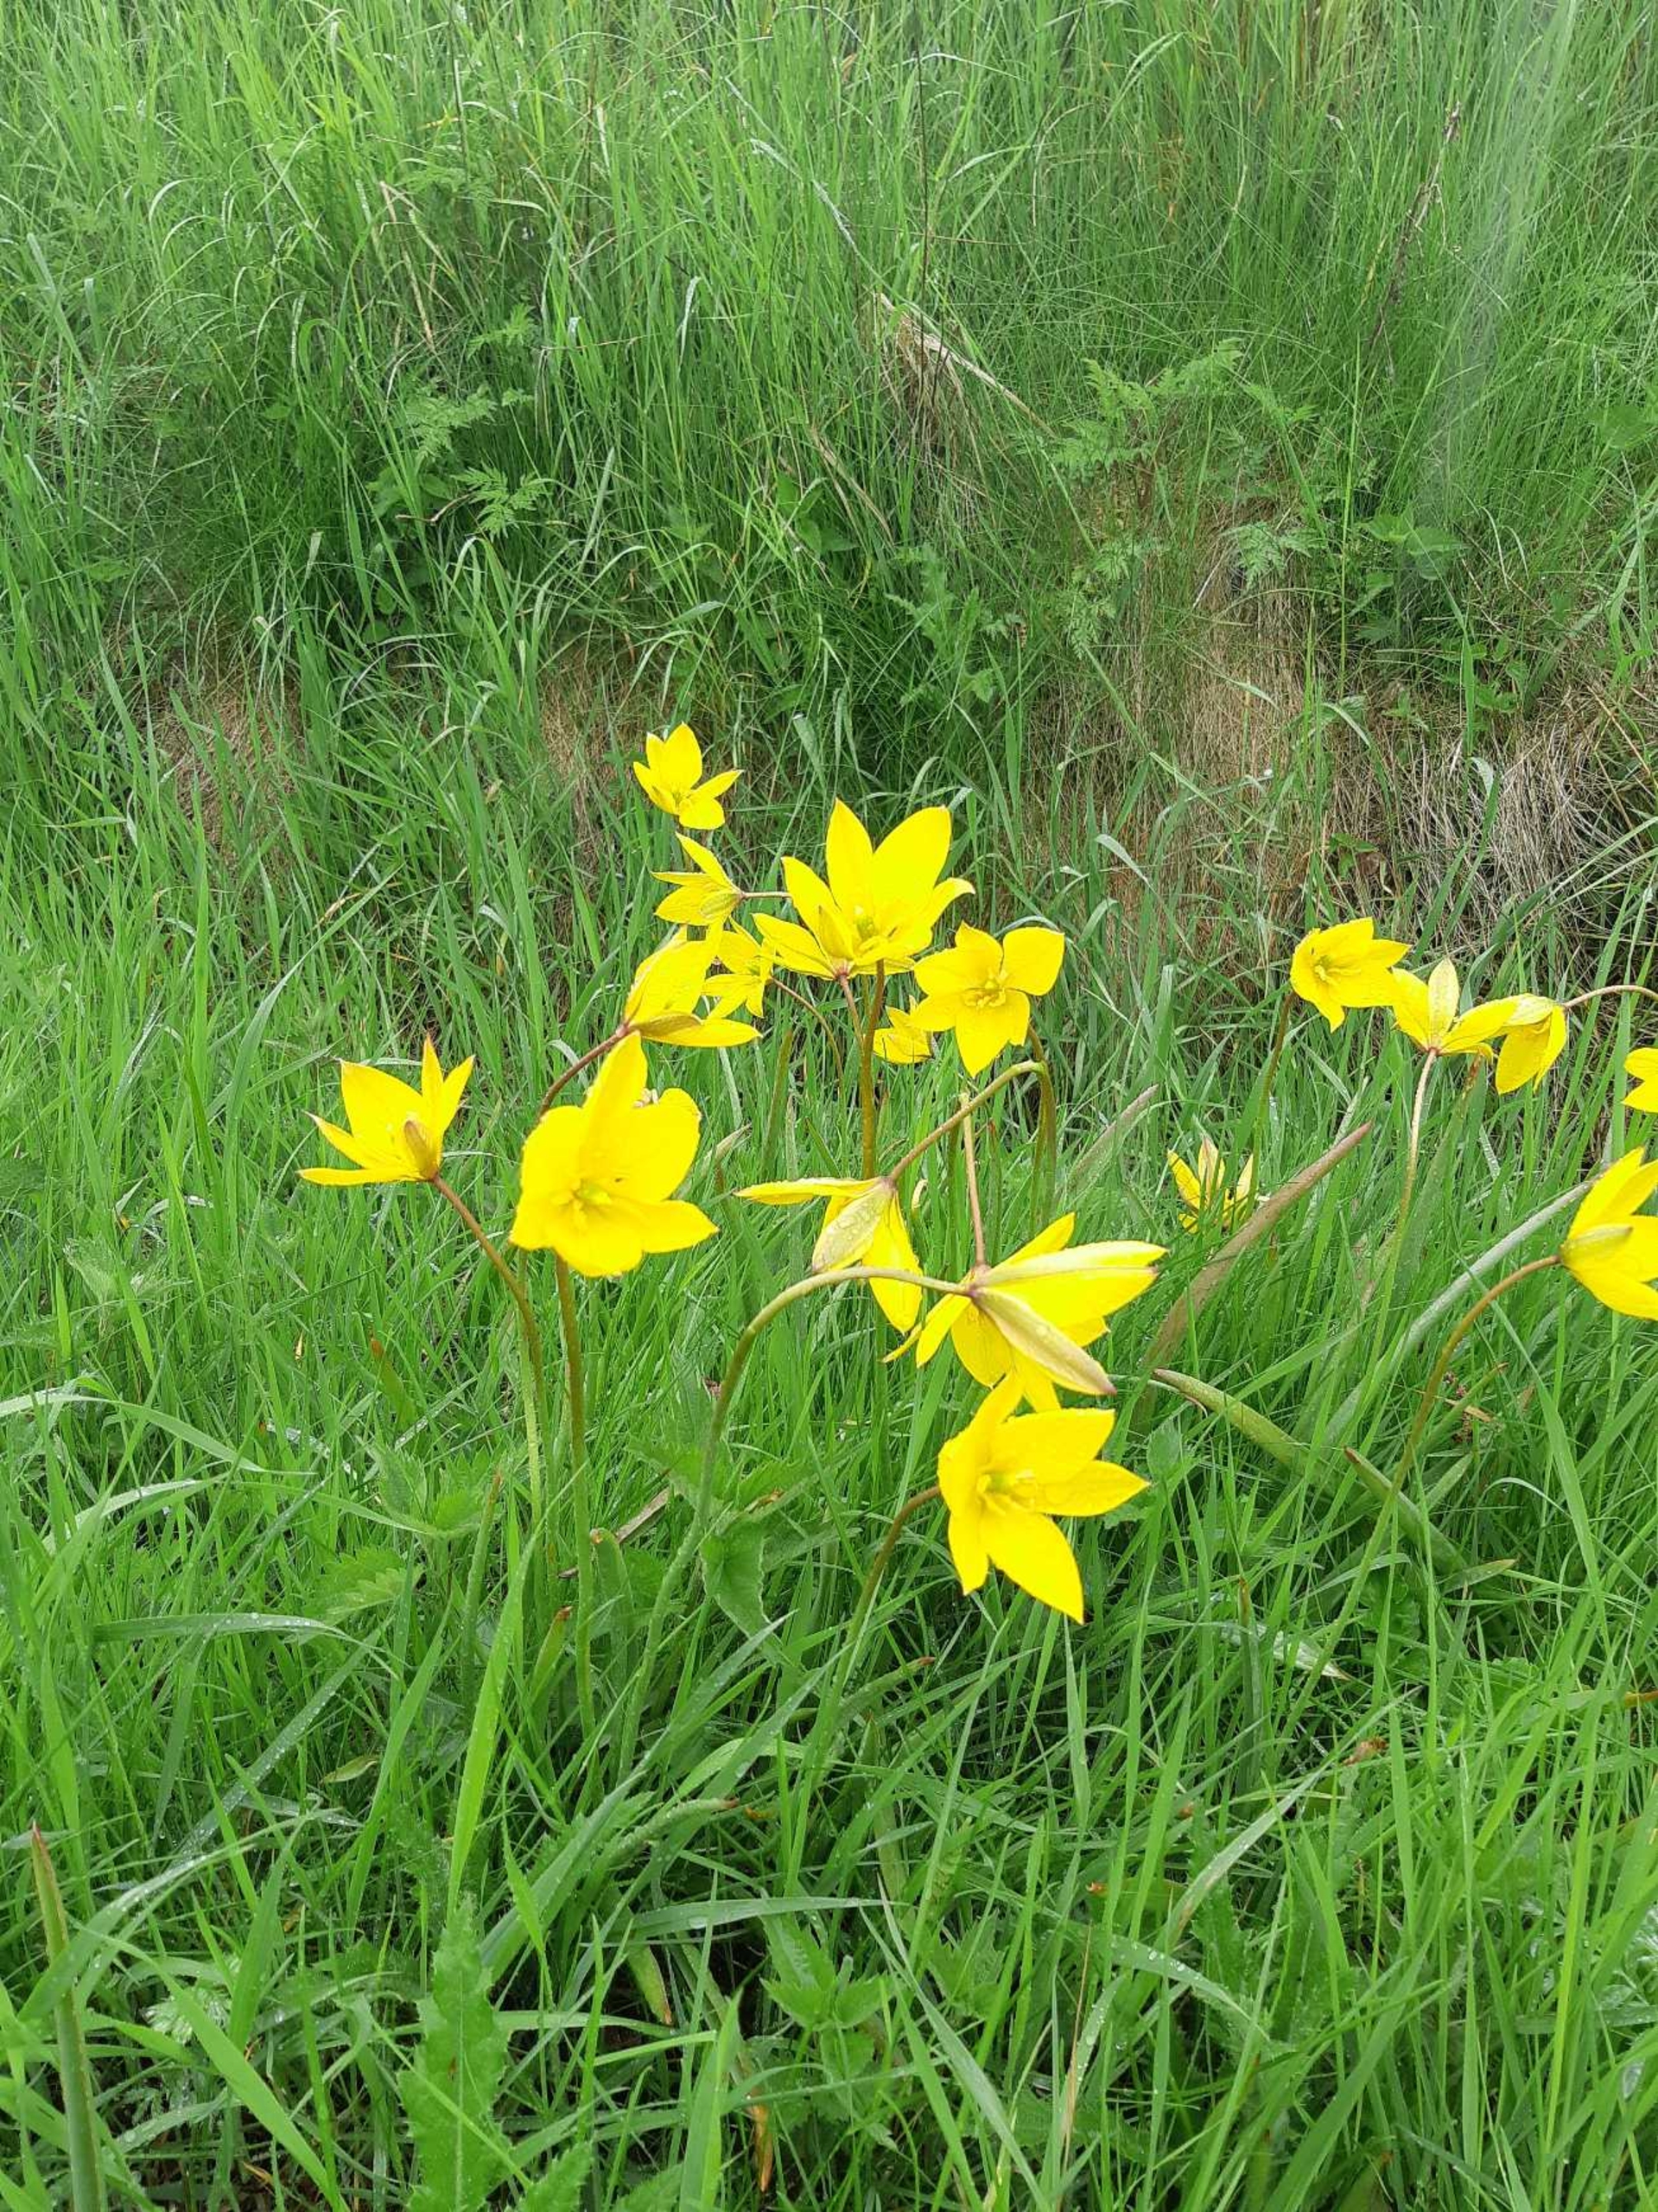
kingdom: Plantae
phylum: Tracheophyta
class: Liliopsida
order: Liliales
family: Liliaceae
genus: Tulipa
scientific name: Tulipa sylvestris
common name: Vild tulipan
